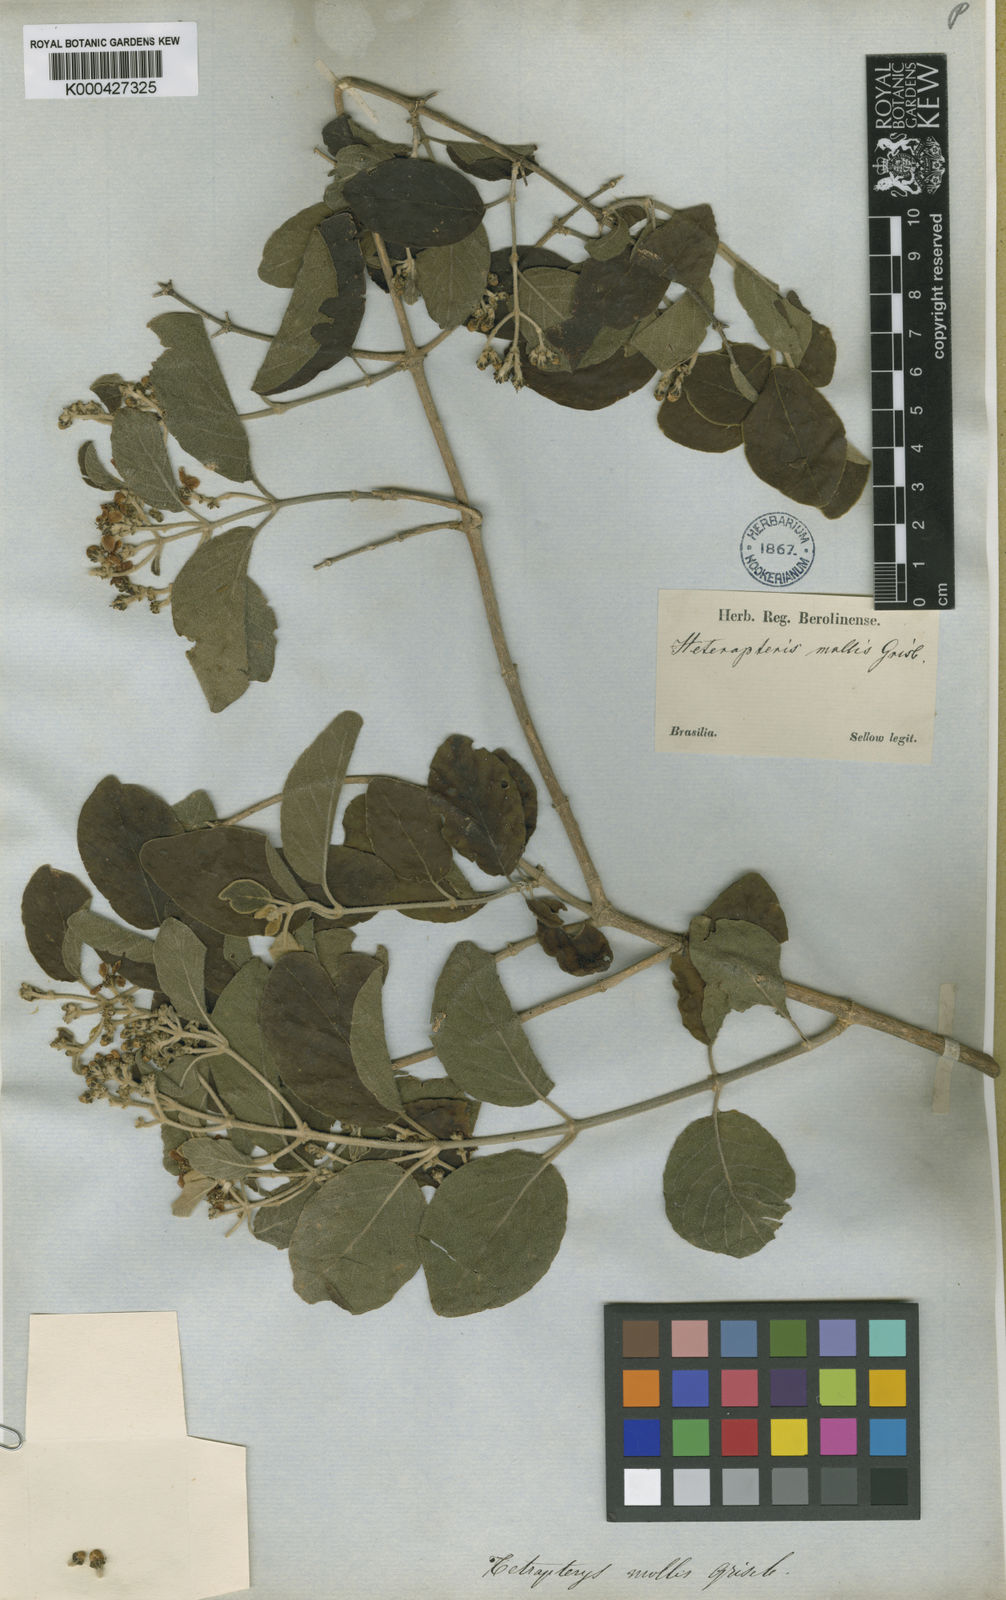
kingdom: Plantae
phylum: Tracheophyta
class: Magnoliopsida
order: Malpighiales
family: Malpighiaceae
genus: Tetrapterys
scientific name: Tetrapterys mollis
